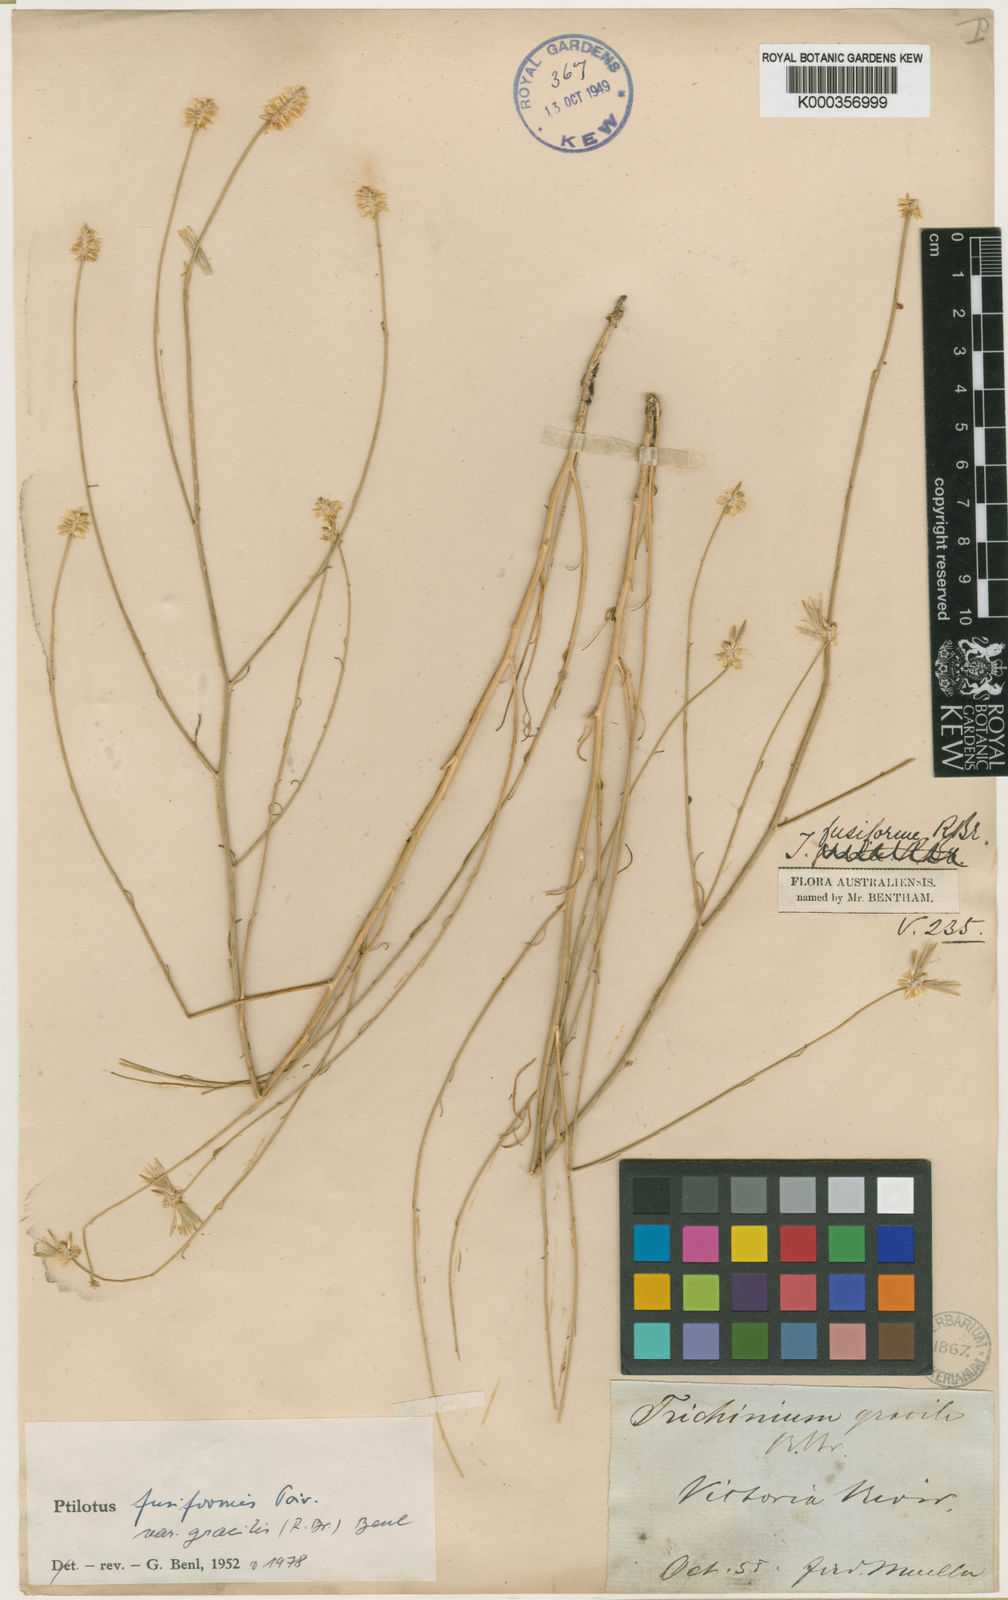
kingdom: Plantae
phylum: Tracheophyta
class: Magnoliopsida
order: Caryophyllales
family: Amaranthaceae
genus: Ptilotus
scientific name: Ptilotus fusiformis
